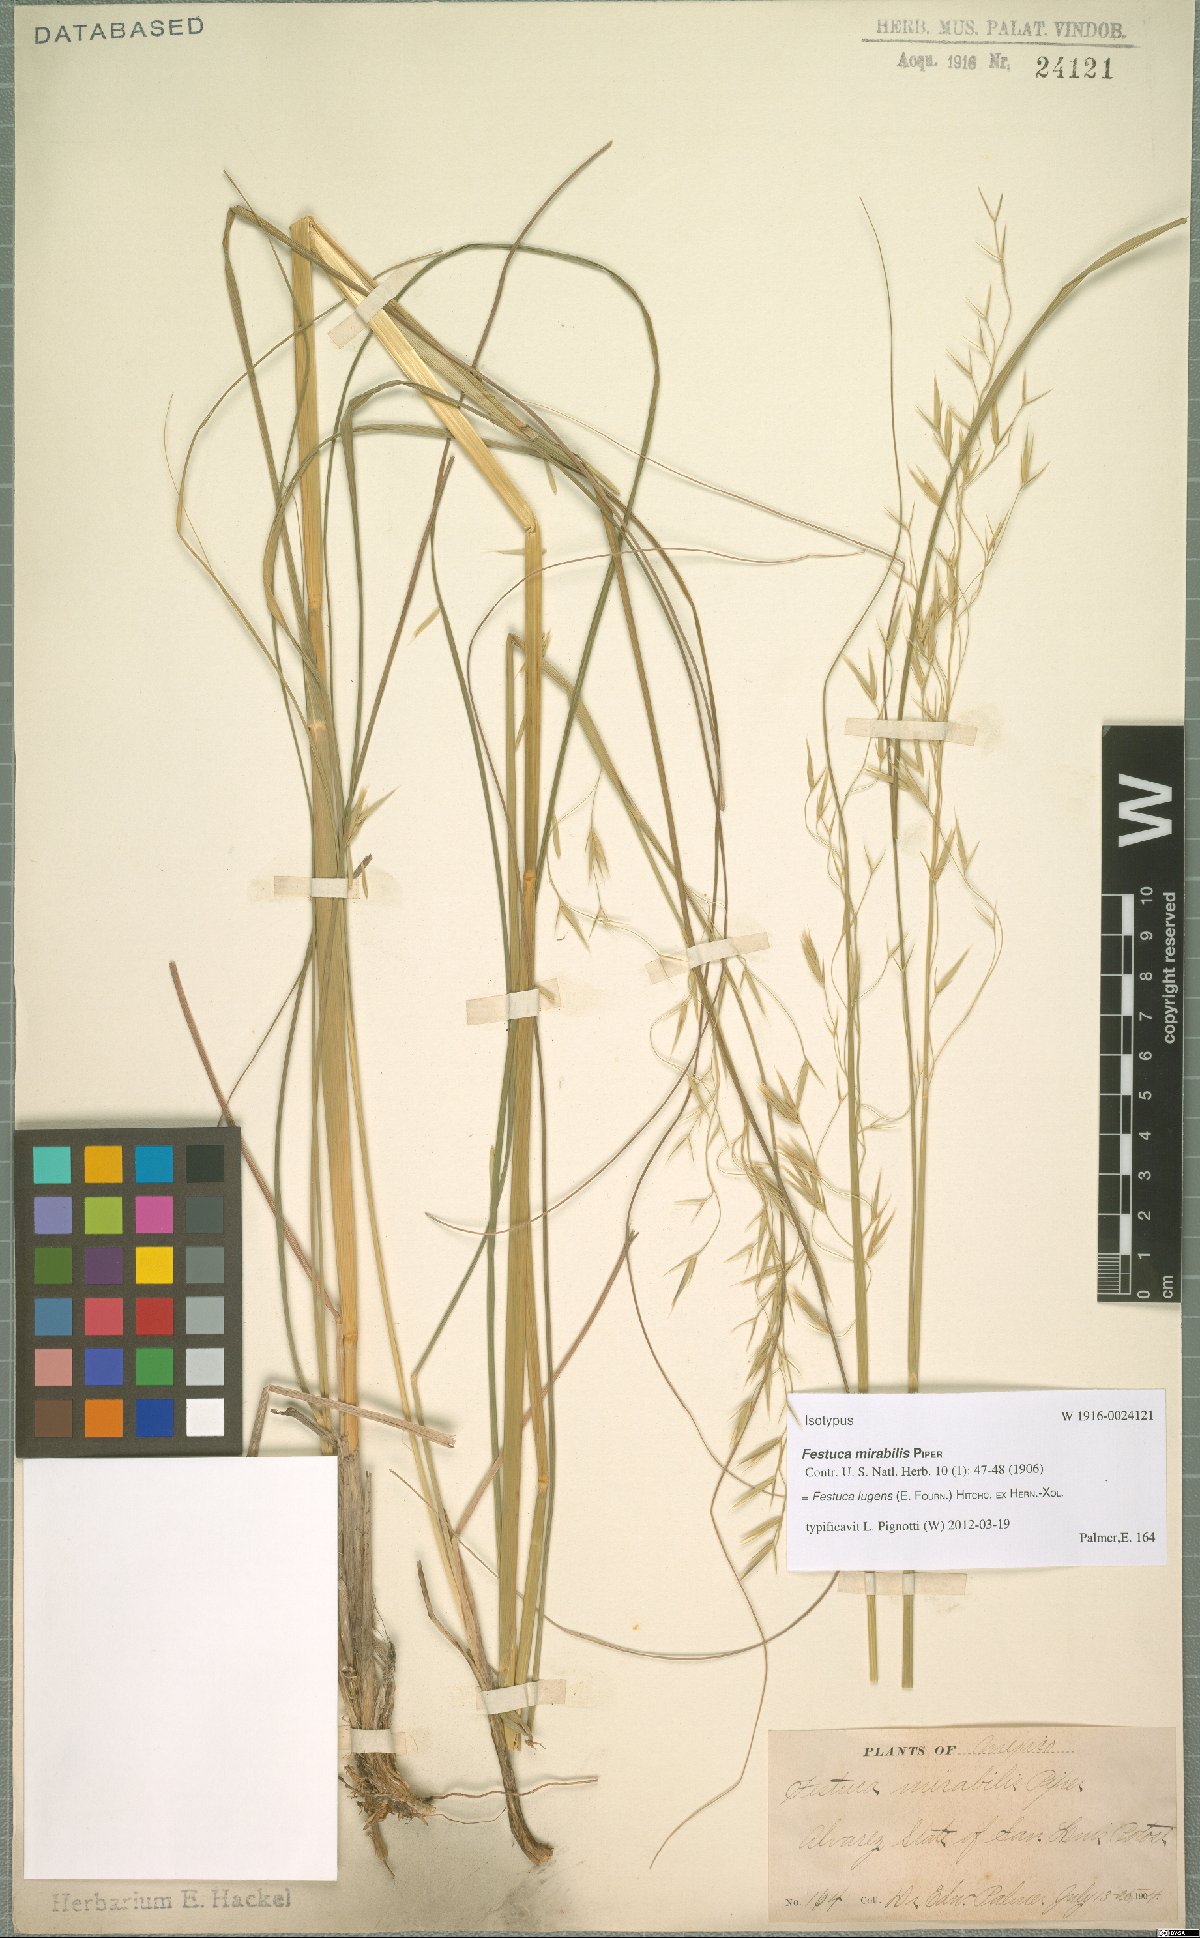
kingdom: Plantae
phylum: Tracheophyta
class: Liliopsida
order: Poales
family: Poaceae
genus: Festuca
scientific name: Festuca lugens
